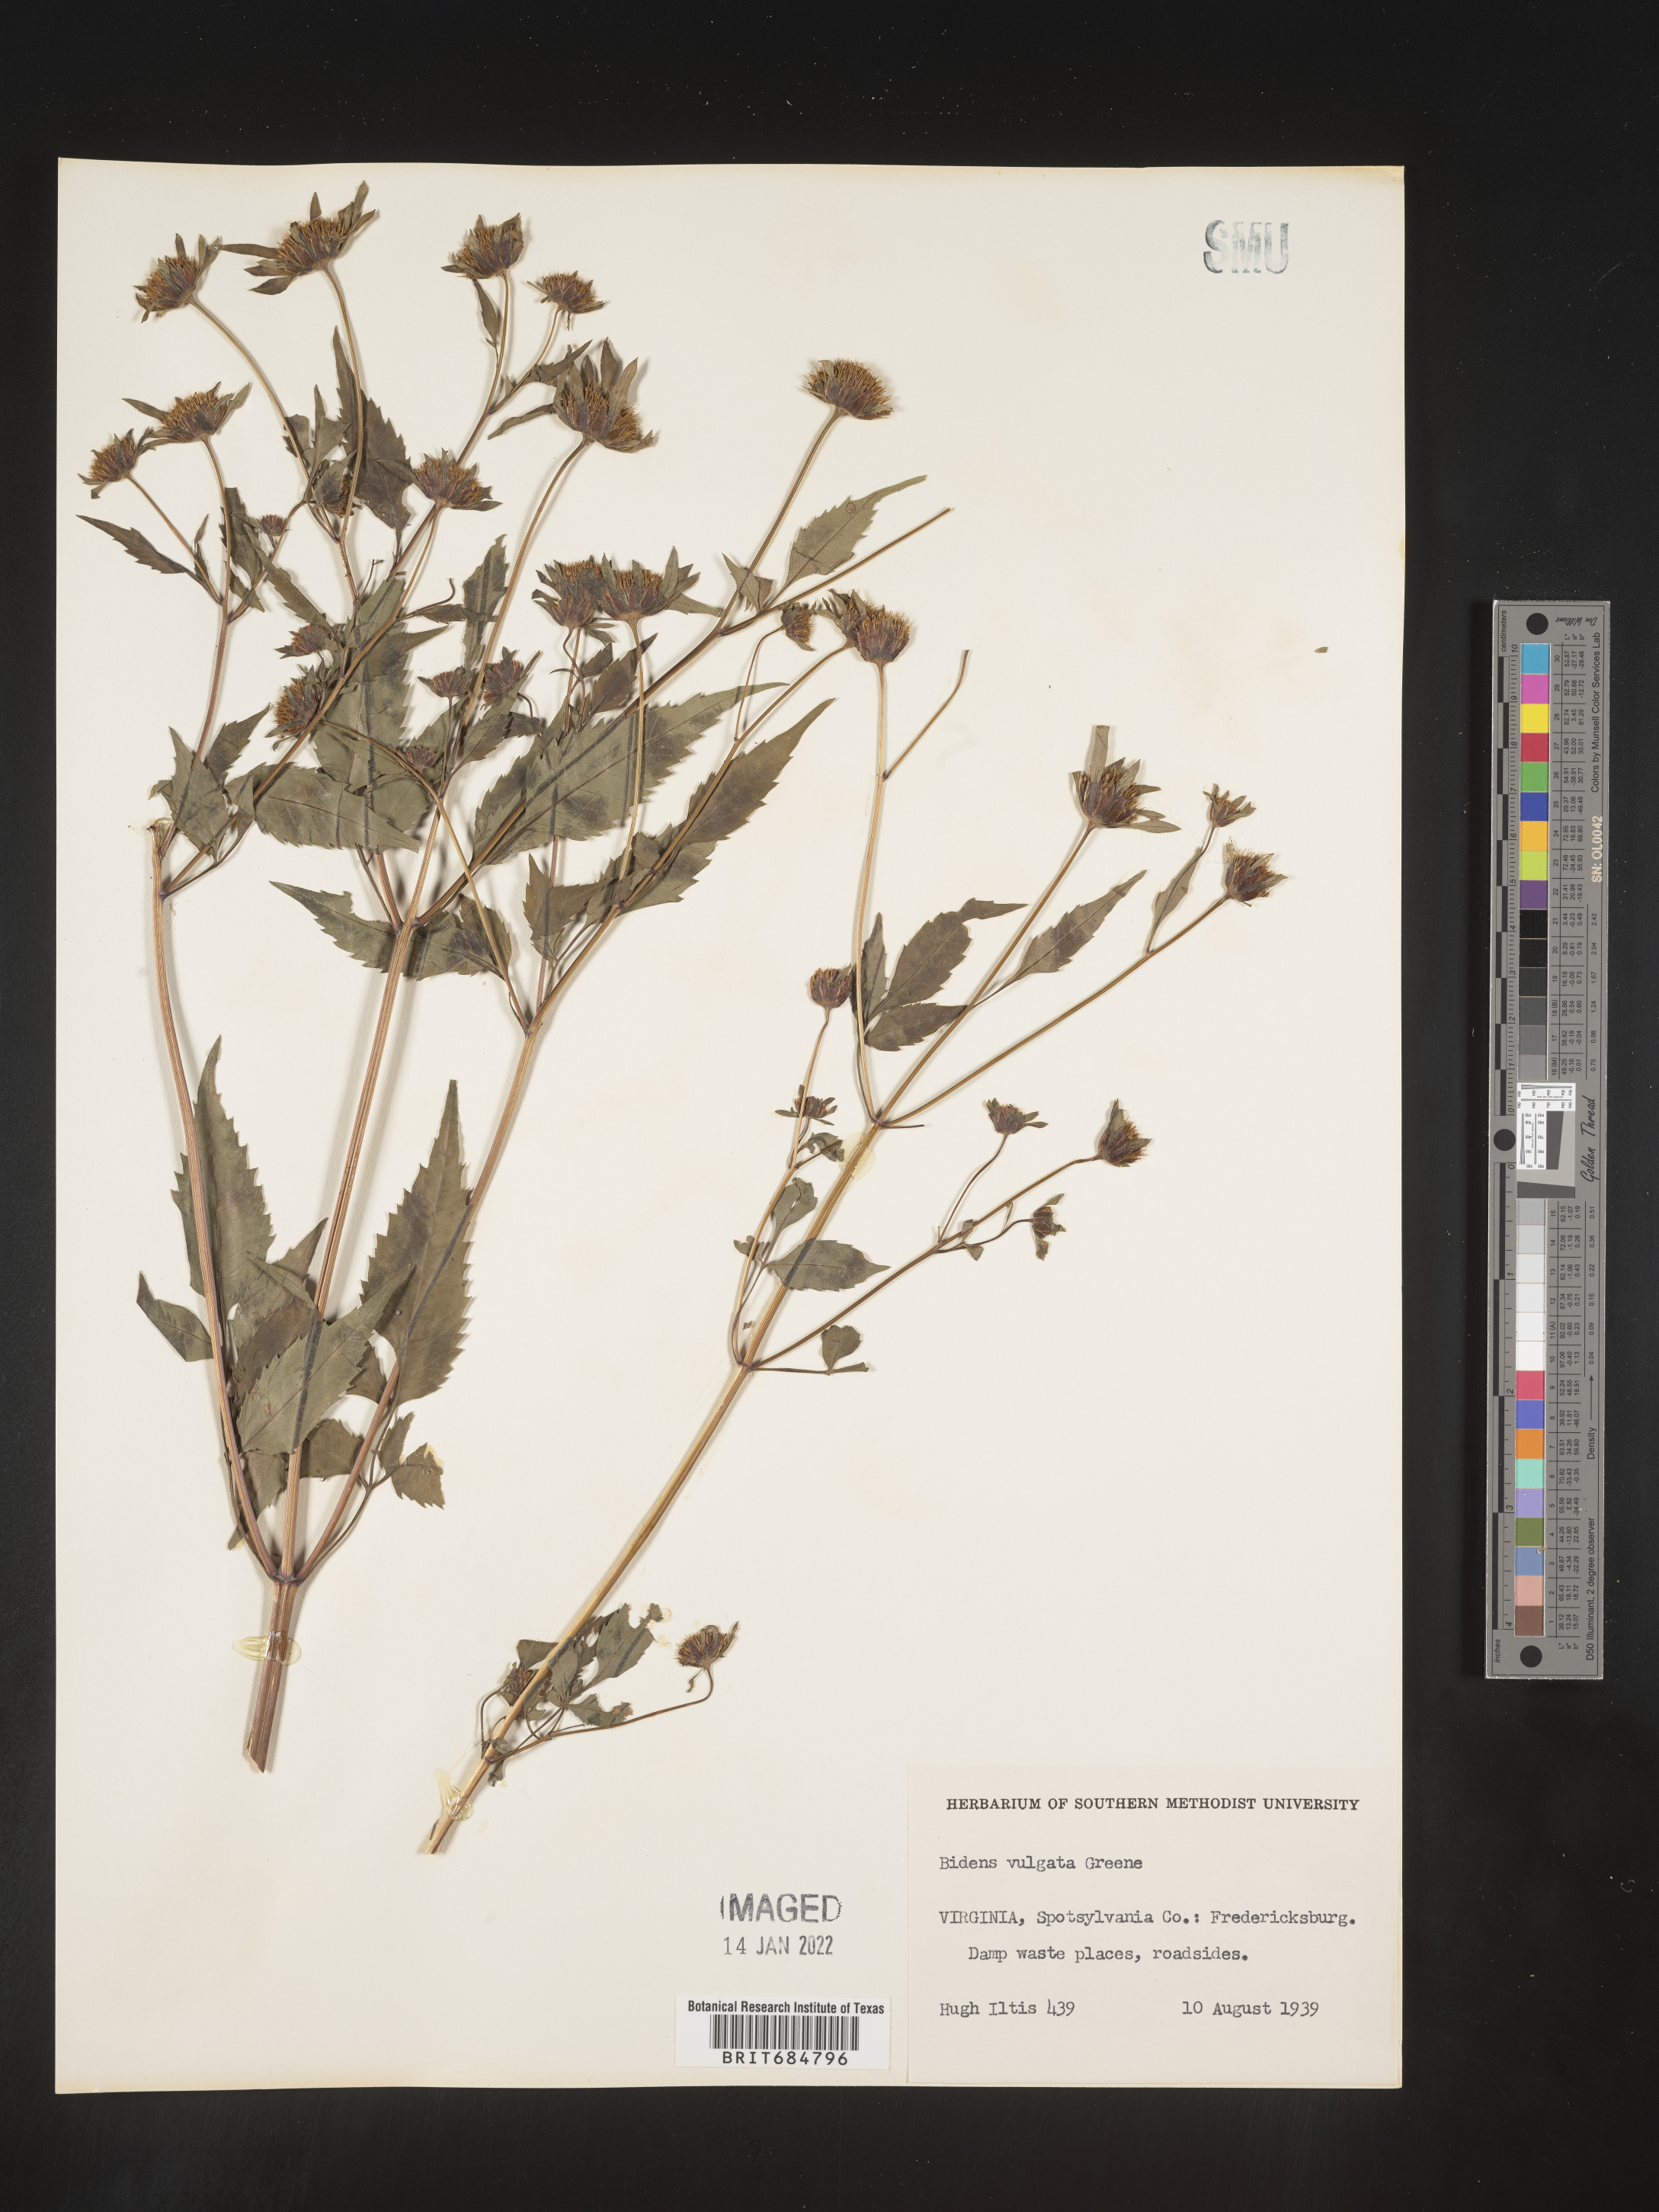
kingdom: Plantae
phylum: Tracheophyta
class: Magnoliopsida
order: Asterales
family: Asteraceae
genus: Bidens
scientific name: Bidens vulgata
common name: Tall beggarticks
